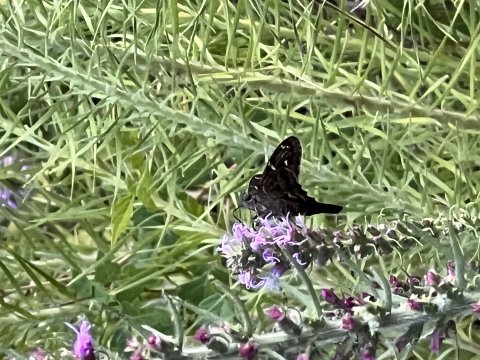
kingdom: Animalia
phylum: Arthropoda
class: Insecta
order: Lepidoptera
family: Hesperiidae
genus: Urbanus
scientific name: Urbanus proteus
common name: Long-tailed Skipper
